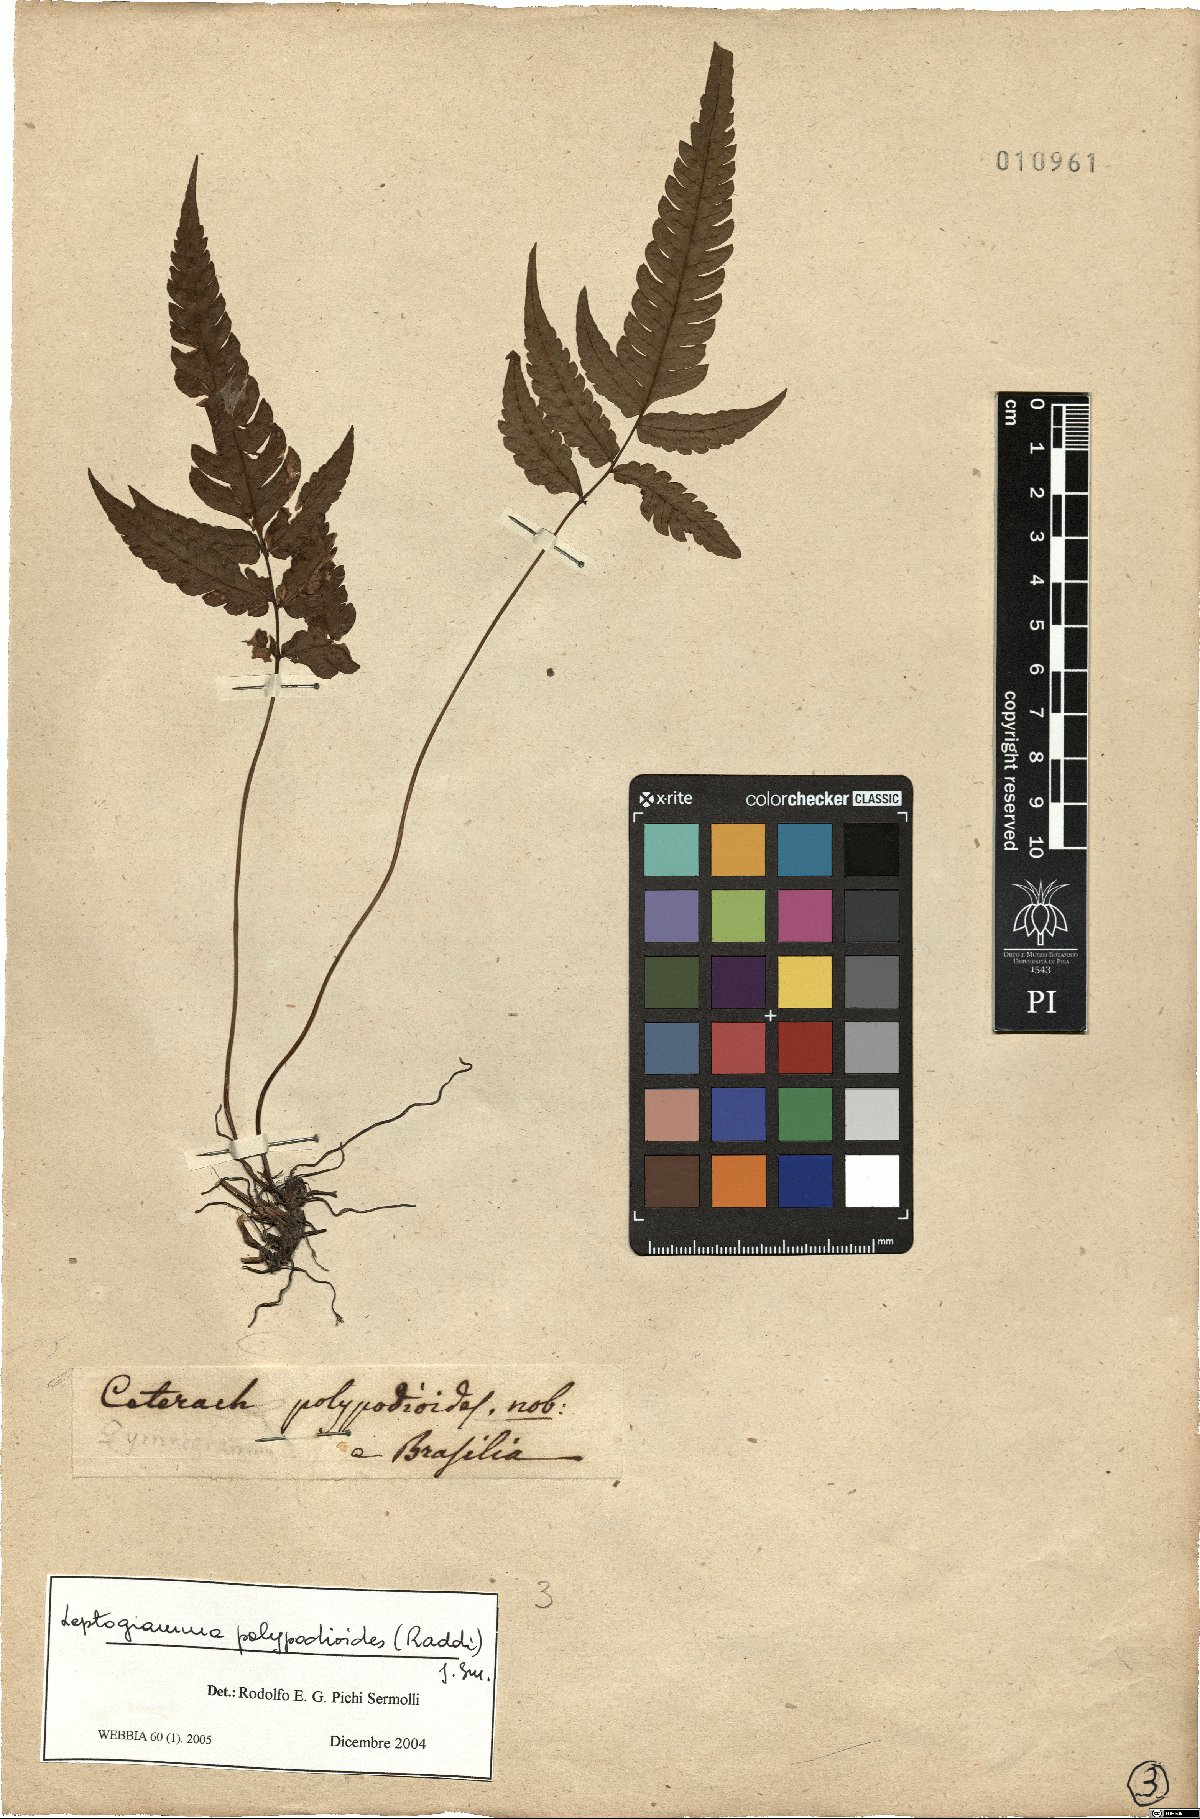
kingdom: Plantae
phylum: Tracheophyta
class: Polypodiopsida
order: Polypodiales
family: Thelypteridaceae
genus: Steiropteris
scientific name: Steiropteris polypodioides
